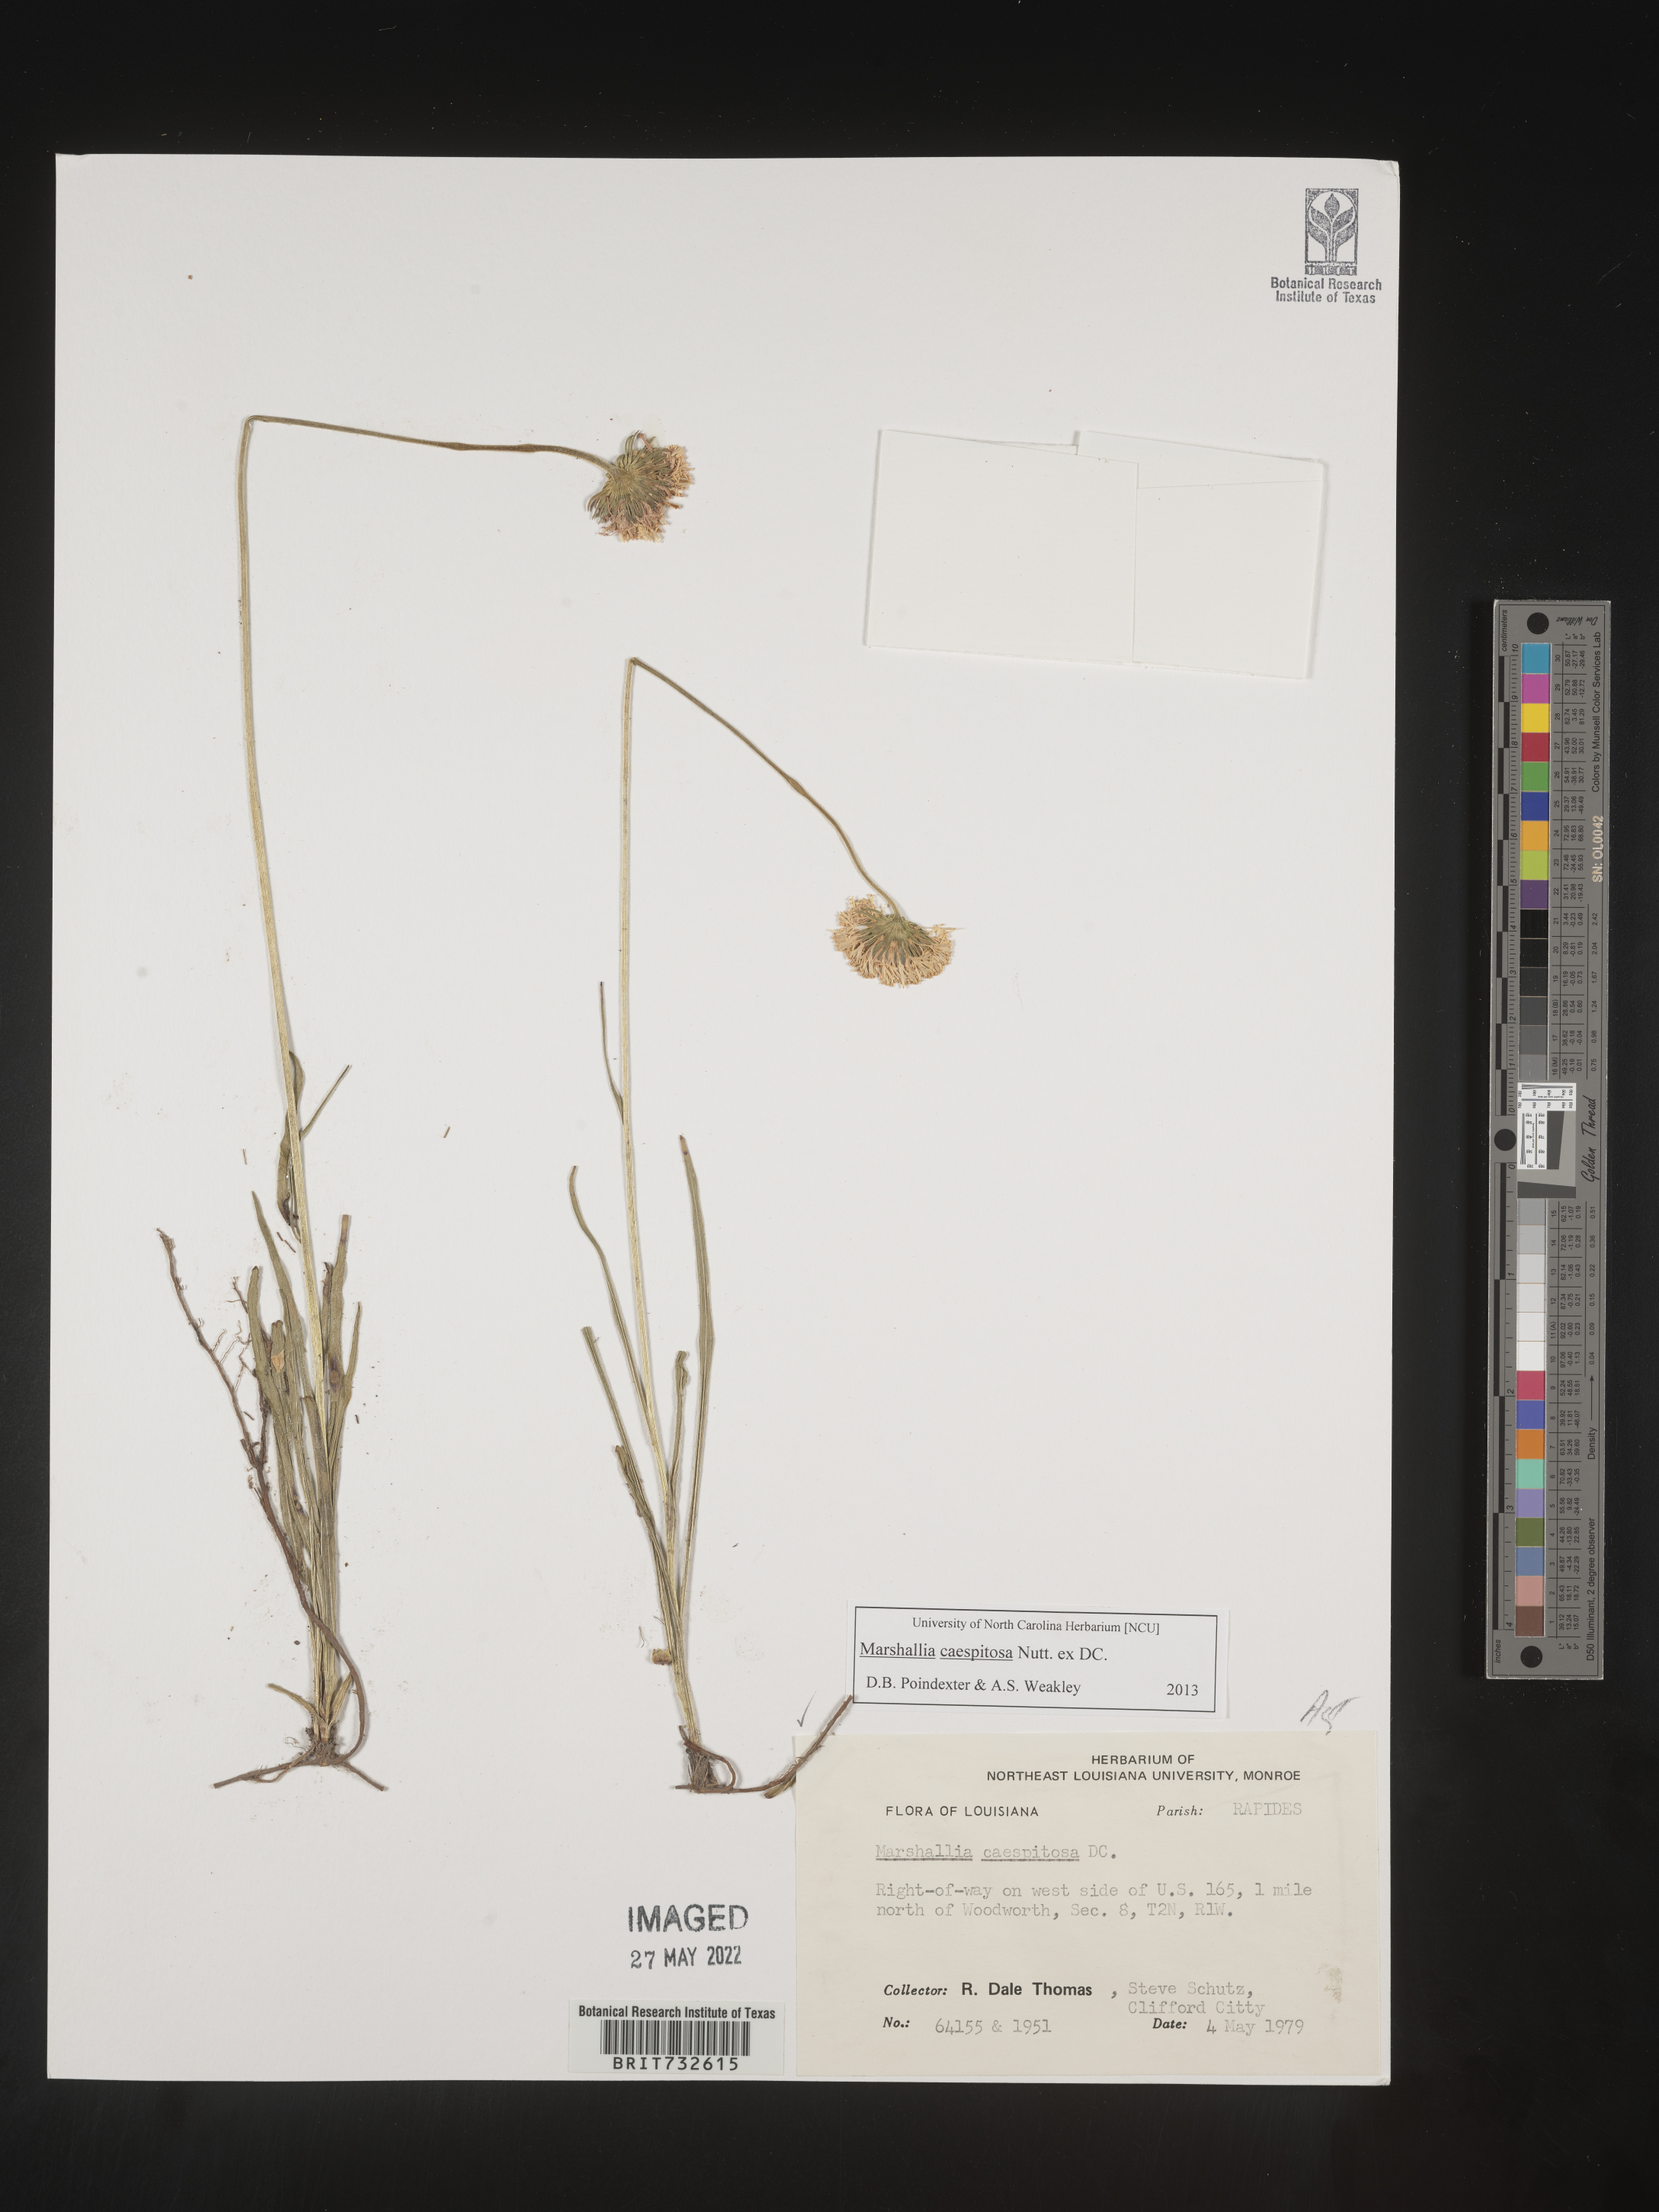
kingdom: Plantae
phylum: Tracheophyta
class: Magnoliopsida
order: Asterales
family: Asteraceae
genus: Marshallia
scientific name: Marshallia caespitosa
